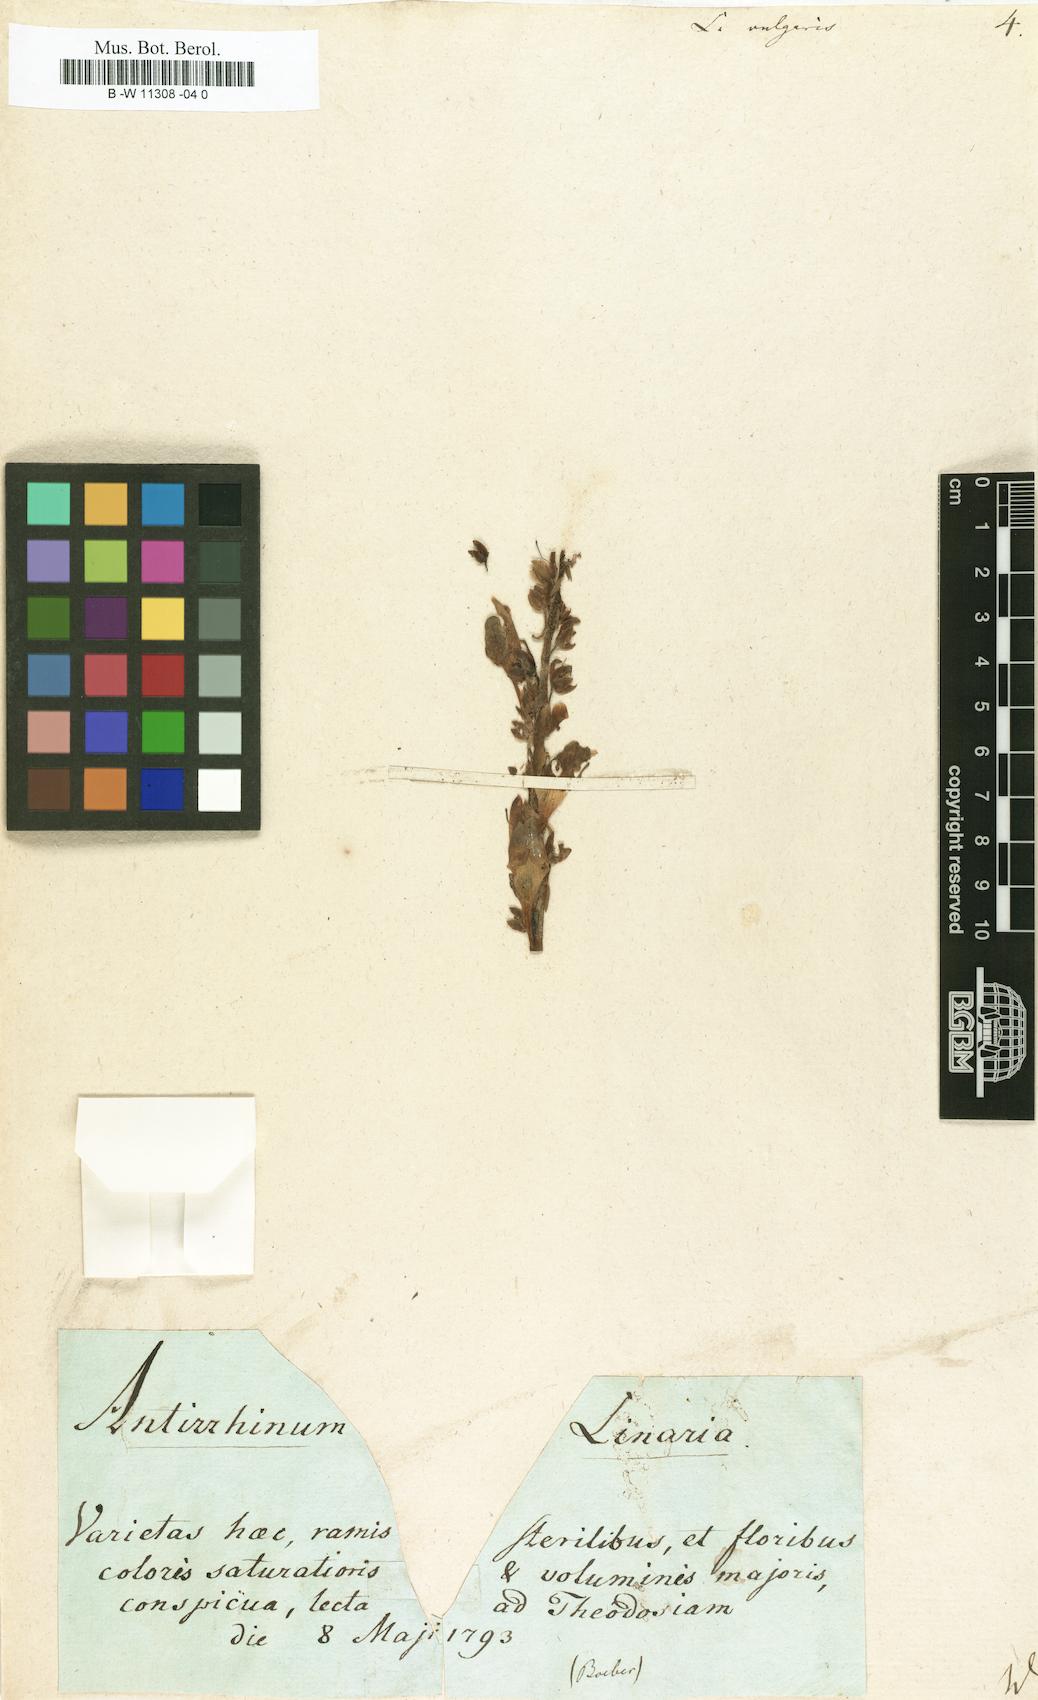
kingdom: Plantae
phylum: Tracheophyta
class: Magnoliopsida
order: Lamiales
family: Plantaginaceae
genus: Linaria
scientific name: Linaria vulgaris
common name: Butter and eggs
